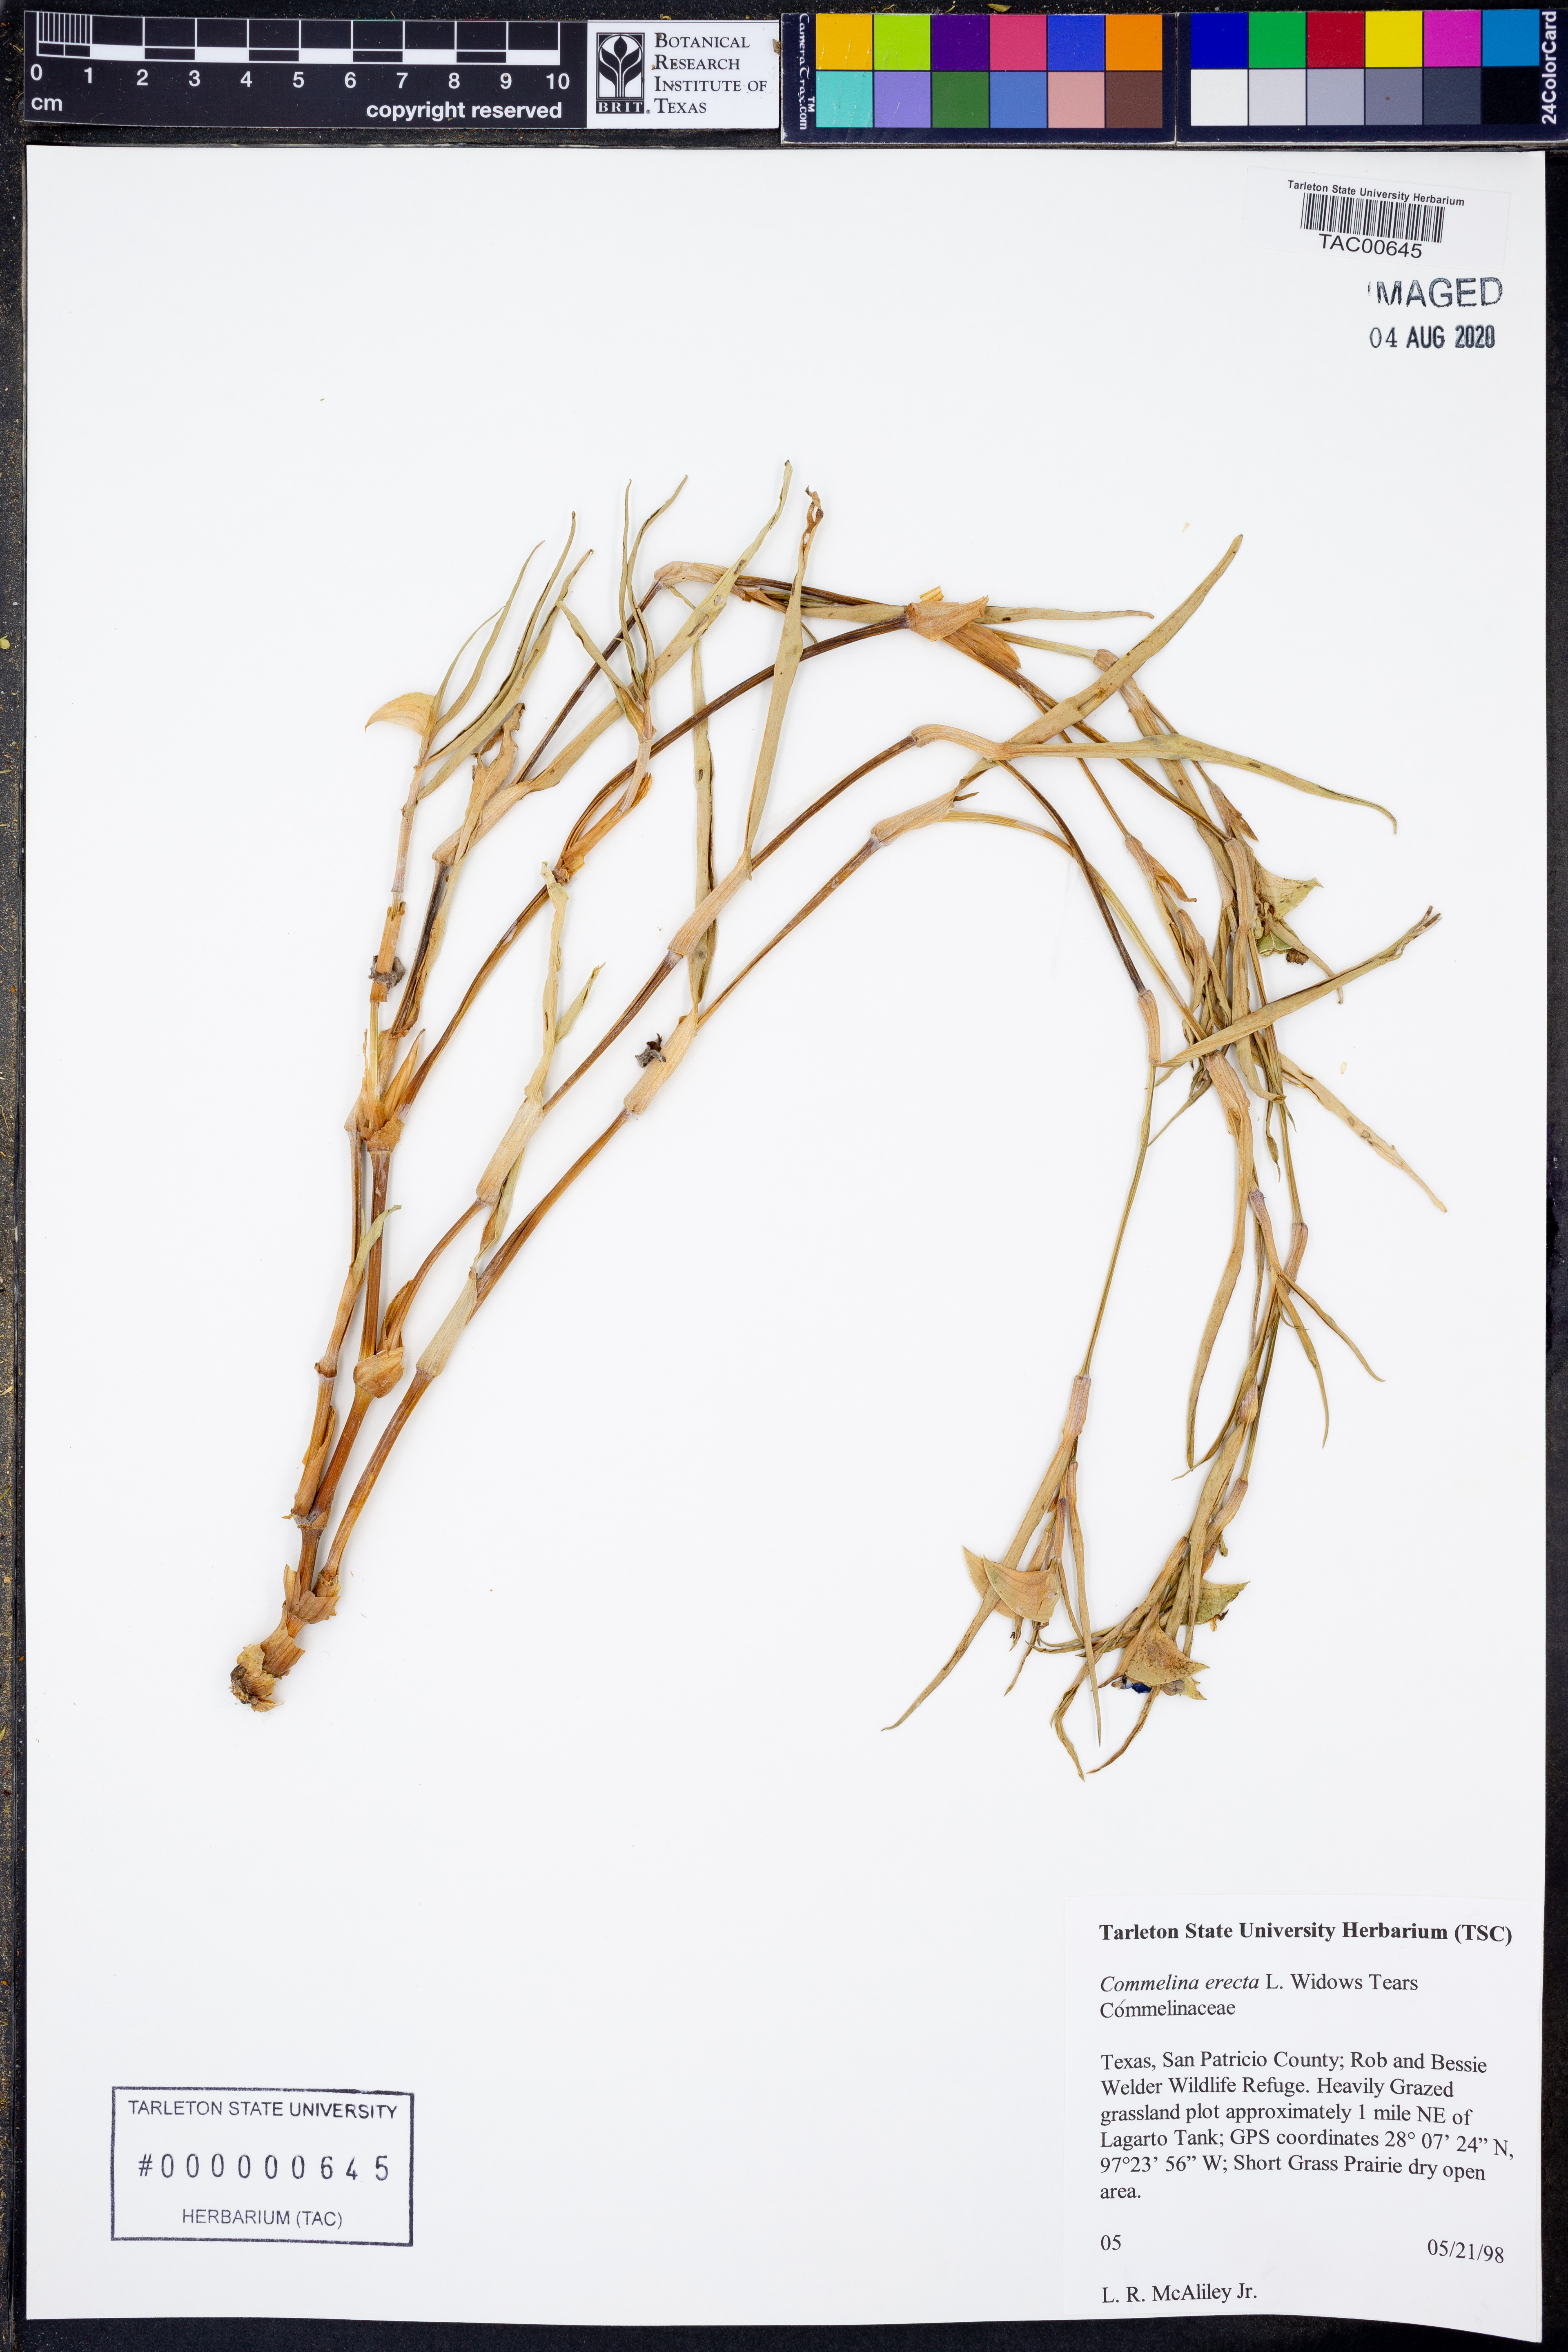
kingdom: Plantae
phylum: Tracheophyta
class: Liliopsida
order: Commelinales
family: Commelinaceae
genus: Commelina
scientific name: Commelina erecta
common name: Blousel blommetjie
